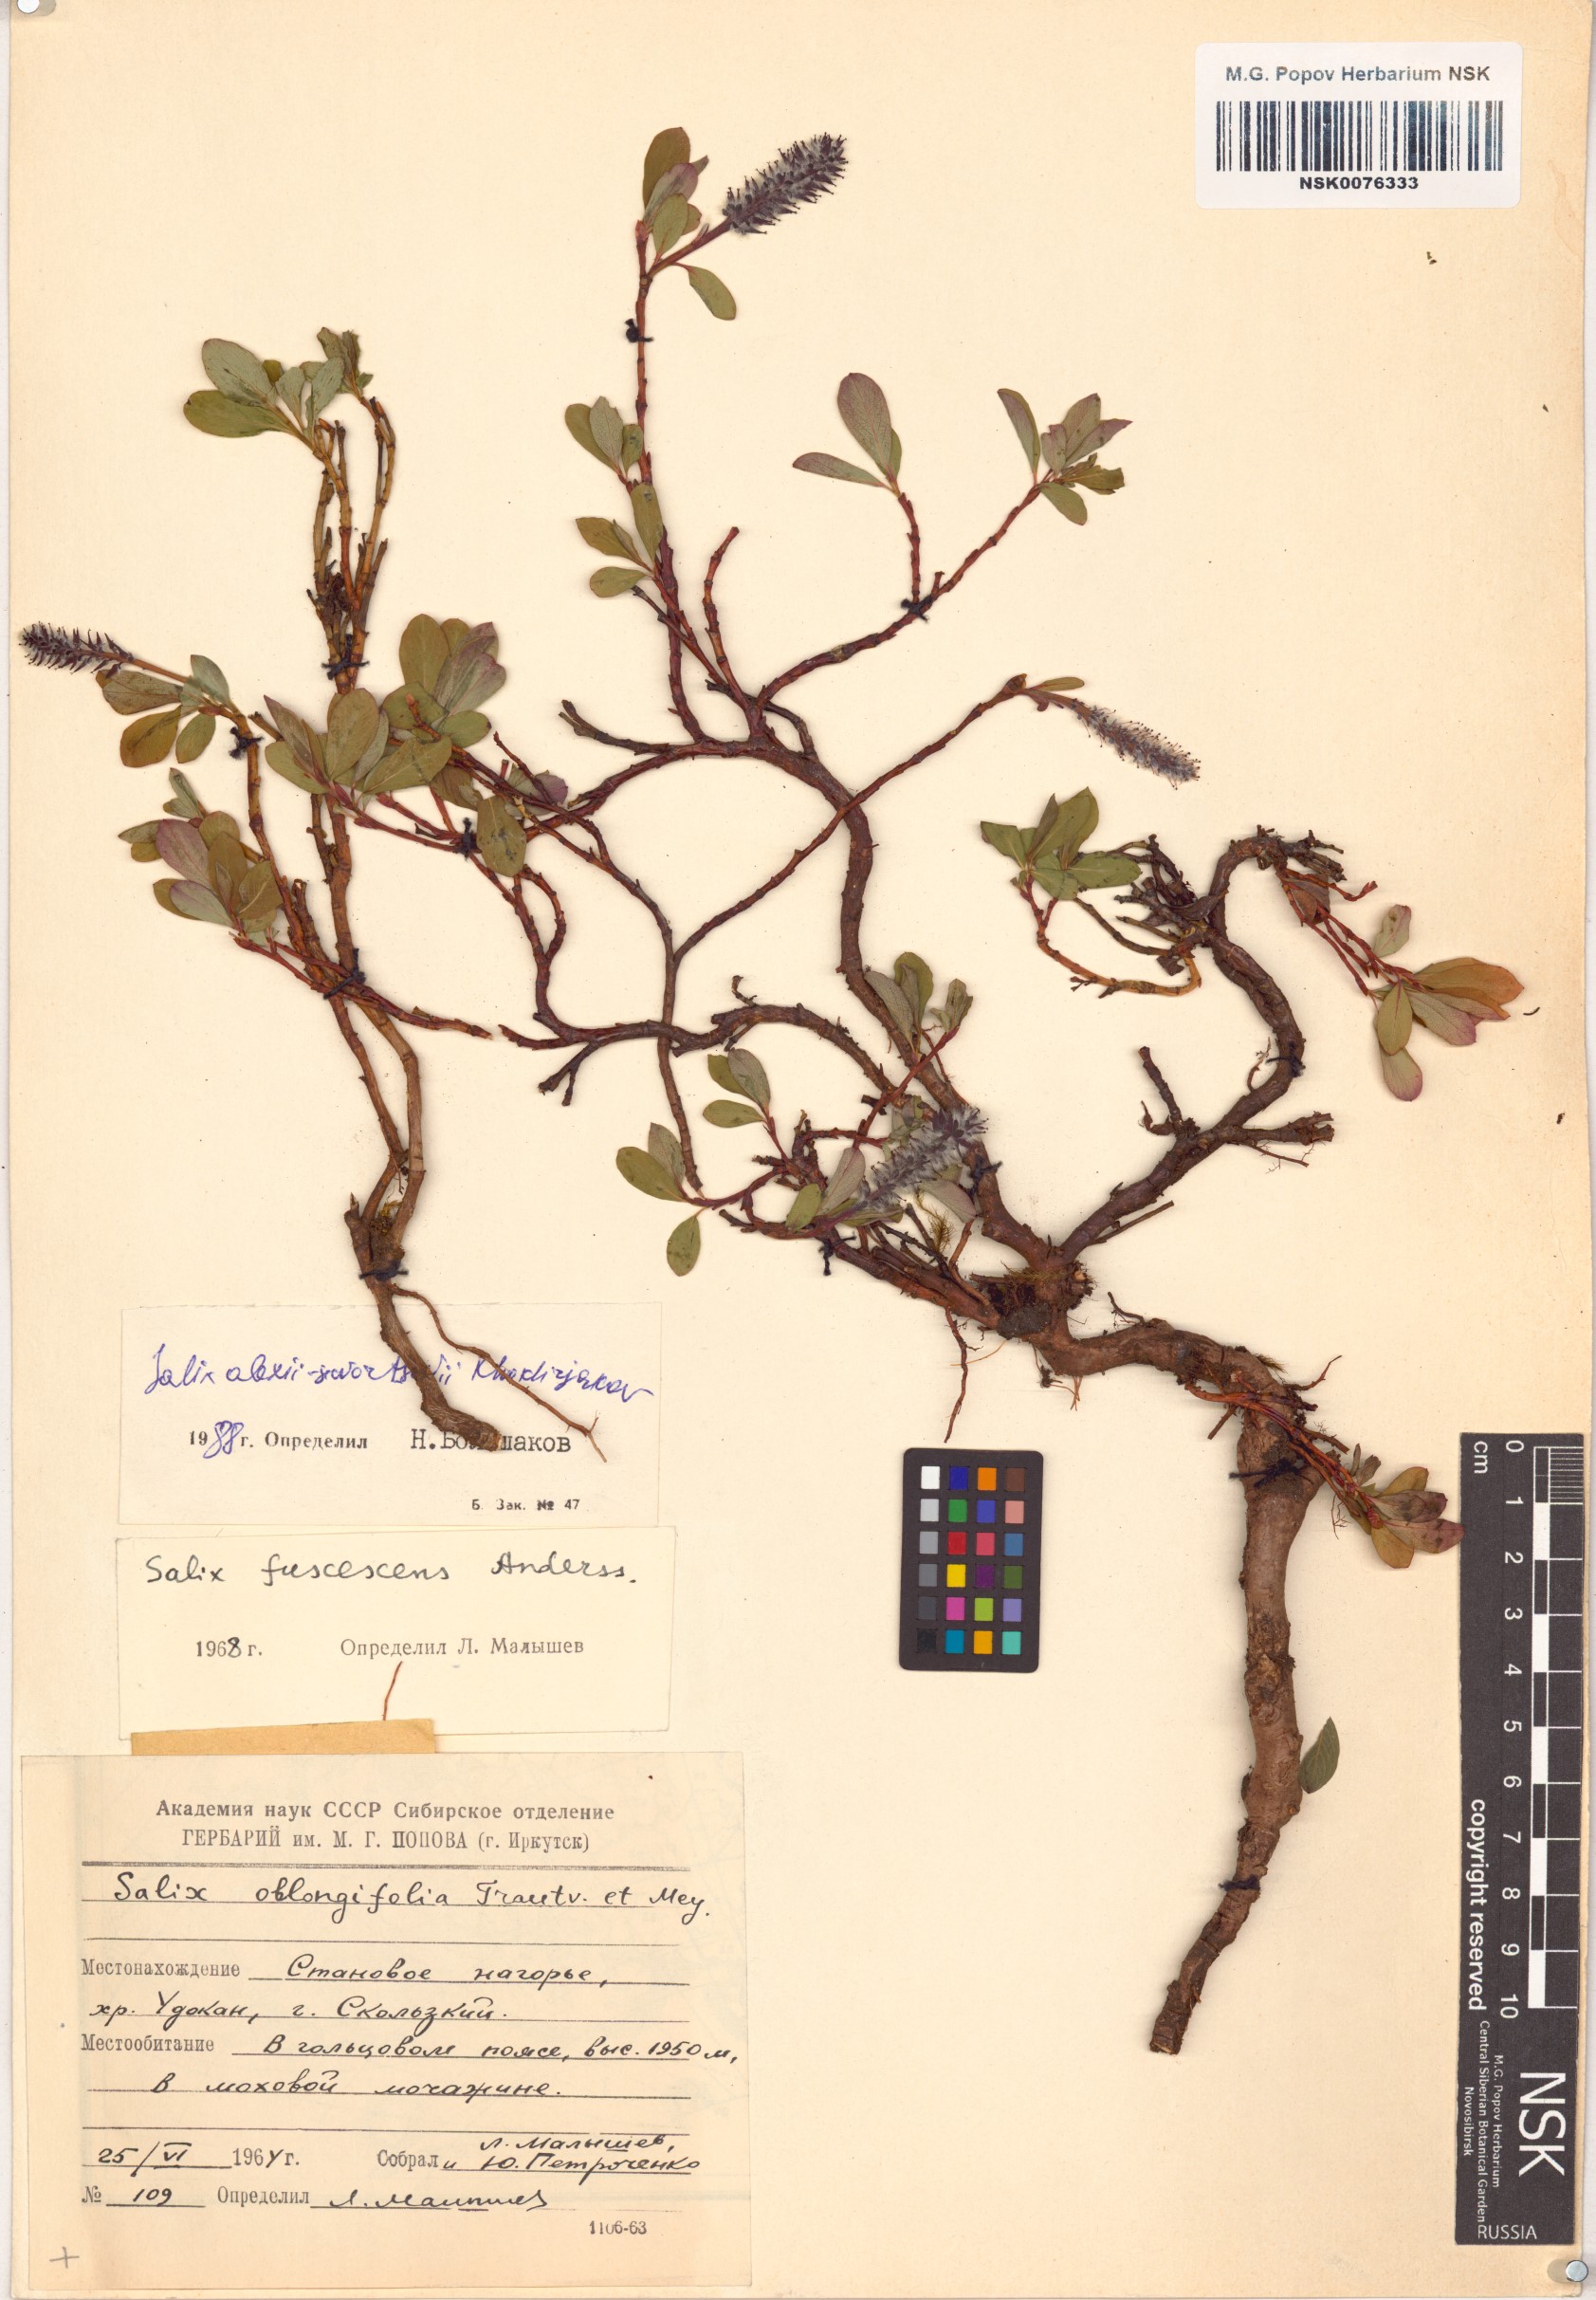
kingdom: Plantae
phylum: Tracheophyta
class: Magnoliopsida
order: Malpighiales
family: Salicaceae
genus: Salix
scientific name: Salix alexii-skvortzovii
